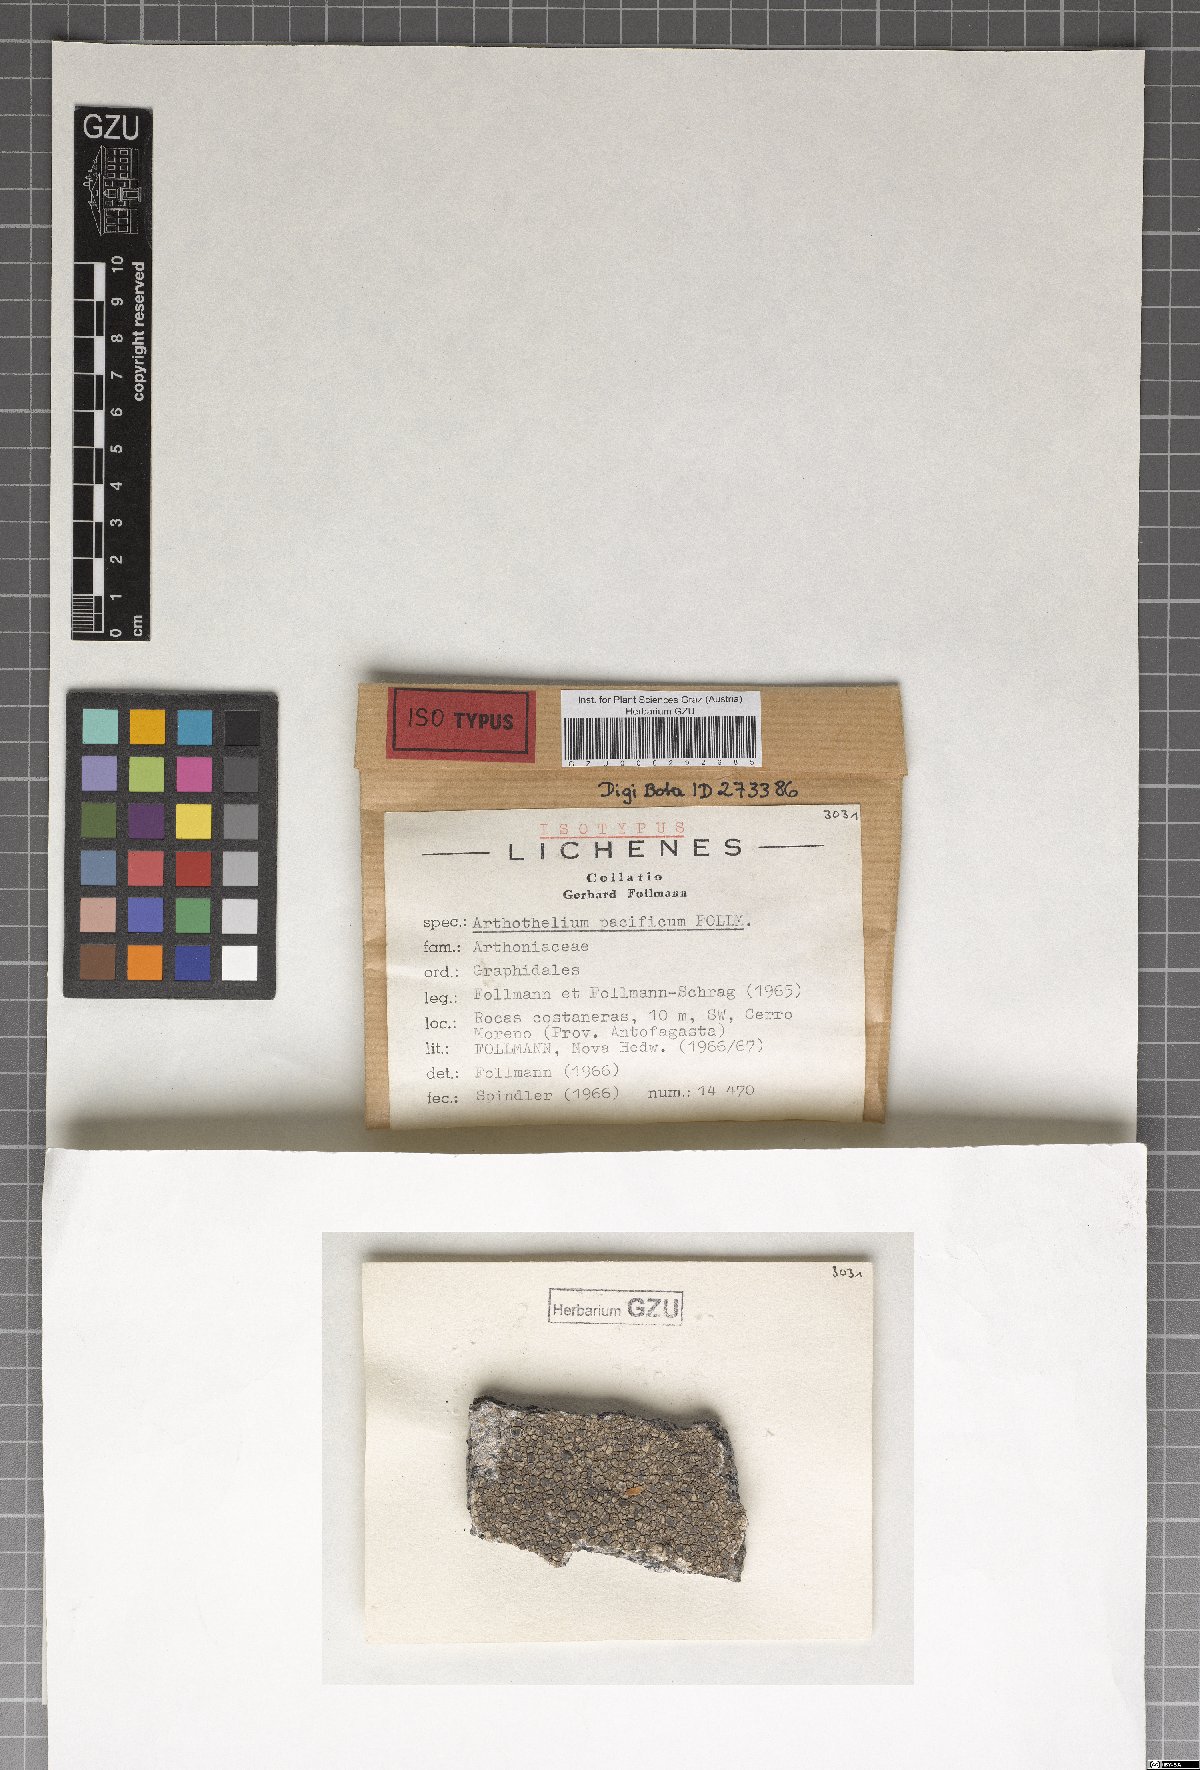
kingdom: Fungi
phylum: Ascomycota
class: Arthoniomycetes
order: Arthoniales
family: Arthoniaceae
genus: Arthothelium
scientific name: Arthothelium
